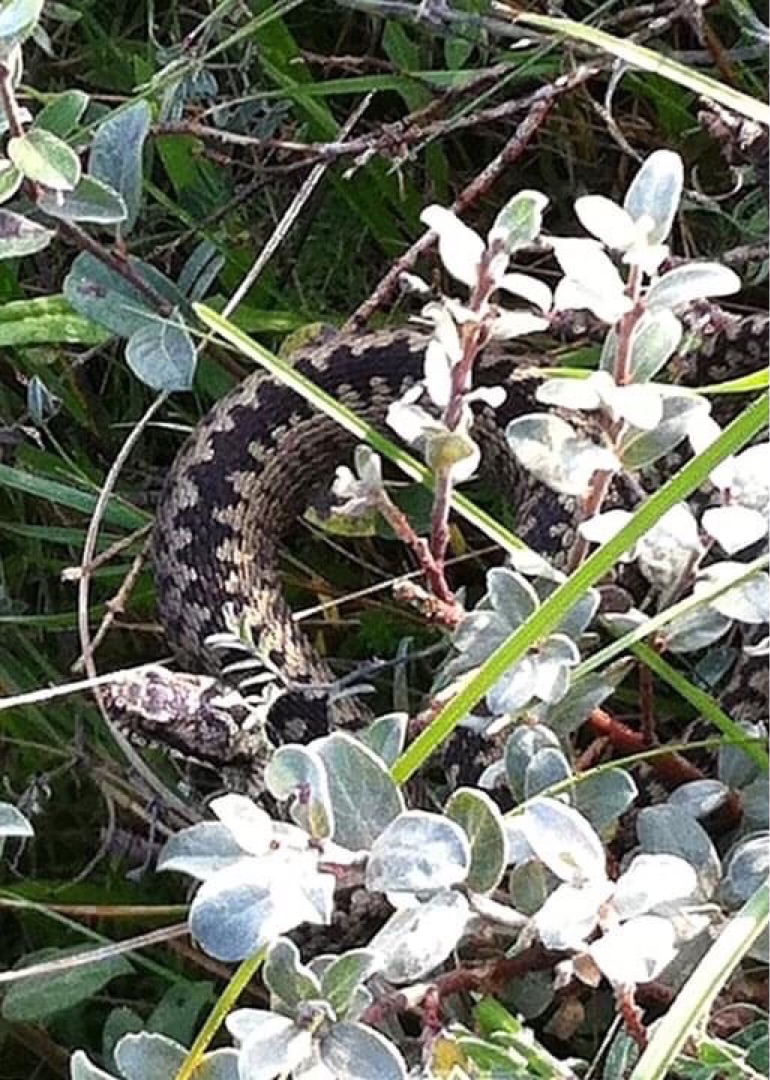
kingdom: Animalia
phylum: Chordata
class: Squamata
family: Viperidae
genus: Vipera
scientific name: Vipera berus
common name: Hugorm
